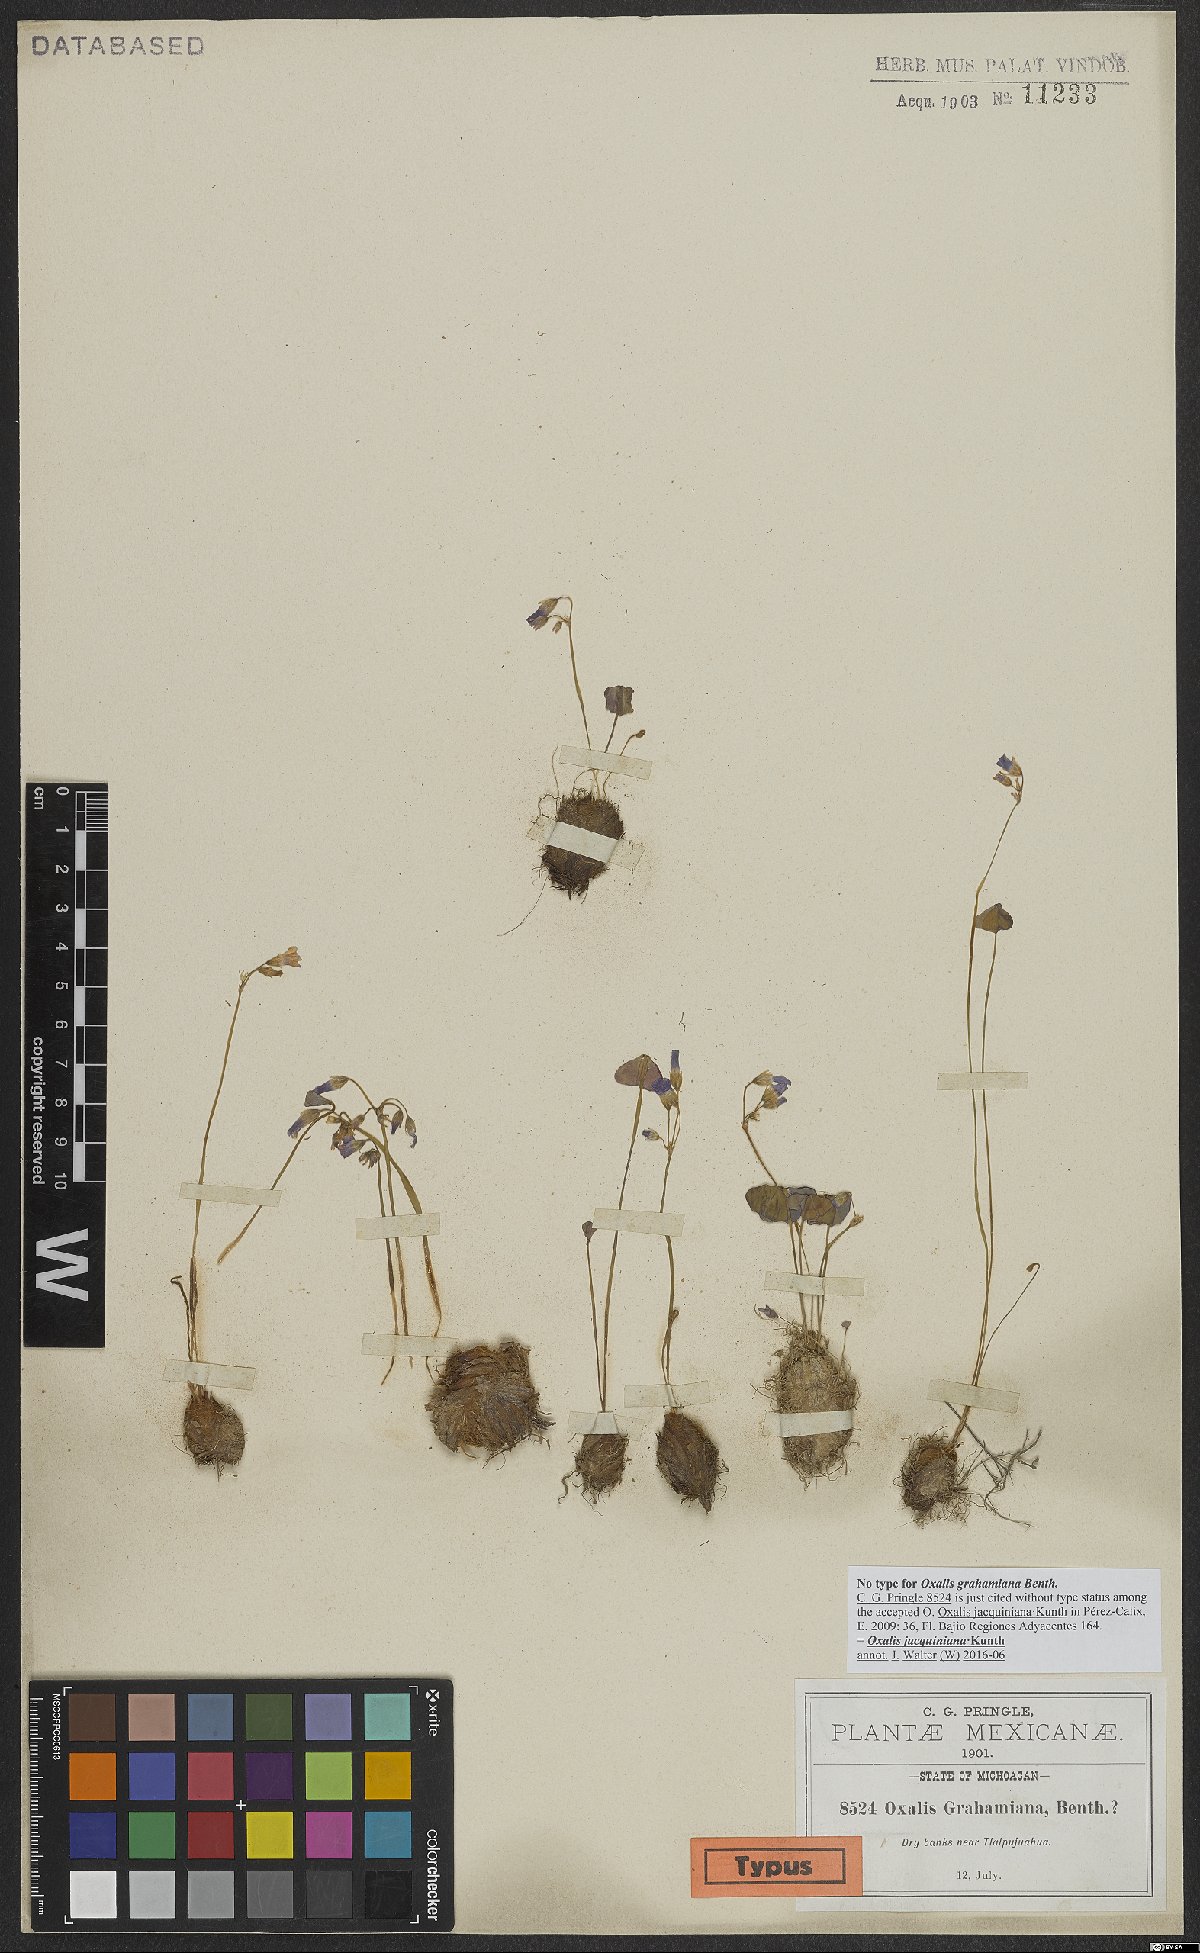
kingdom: Plantae
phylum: Tracheophyta
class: Magnoliopsida
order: Oxalidales
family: Oxalidaceae
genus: Oxalis
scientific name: Oxalis jacquiniana
